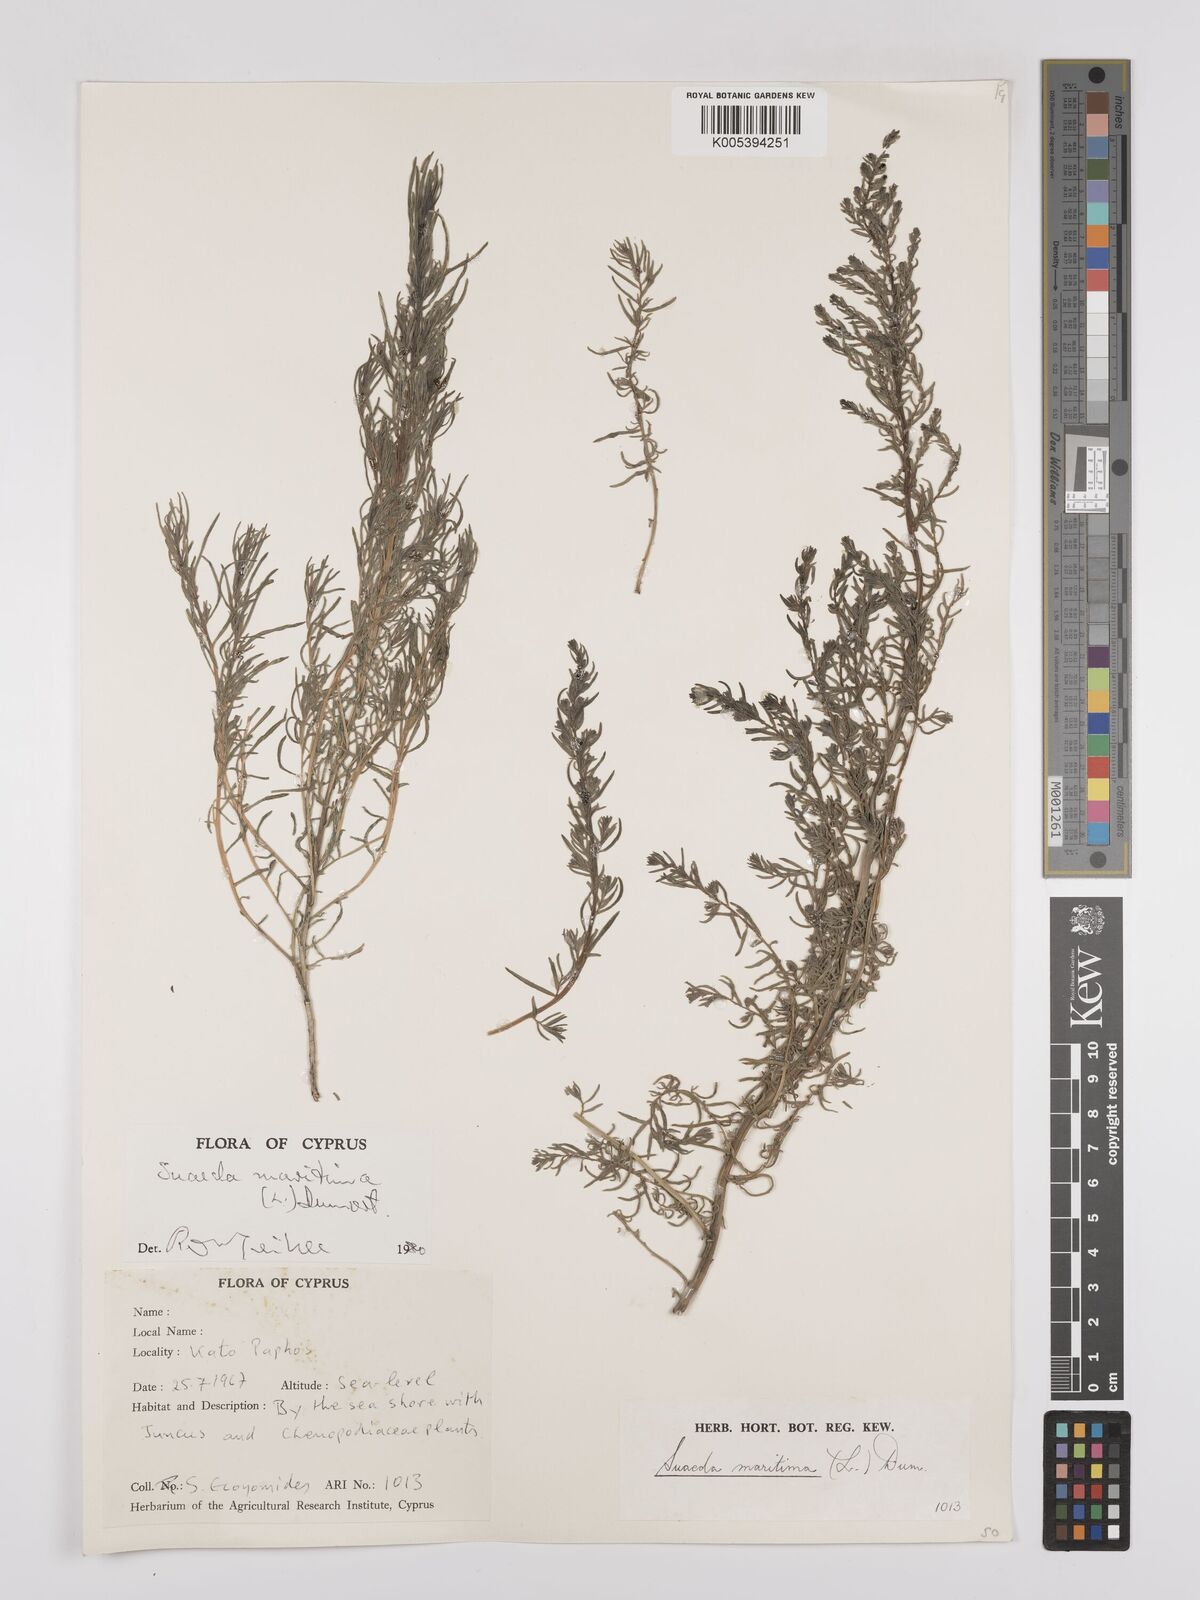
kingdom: Plantae
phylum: Tracheophyta
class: Magnoliopsida
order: Caryophyllales
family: Amaranthaceae
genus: Suaeda
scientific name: Suaeda
